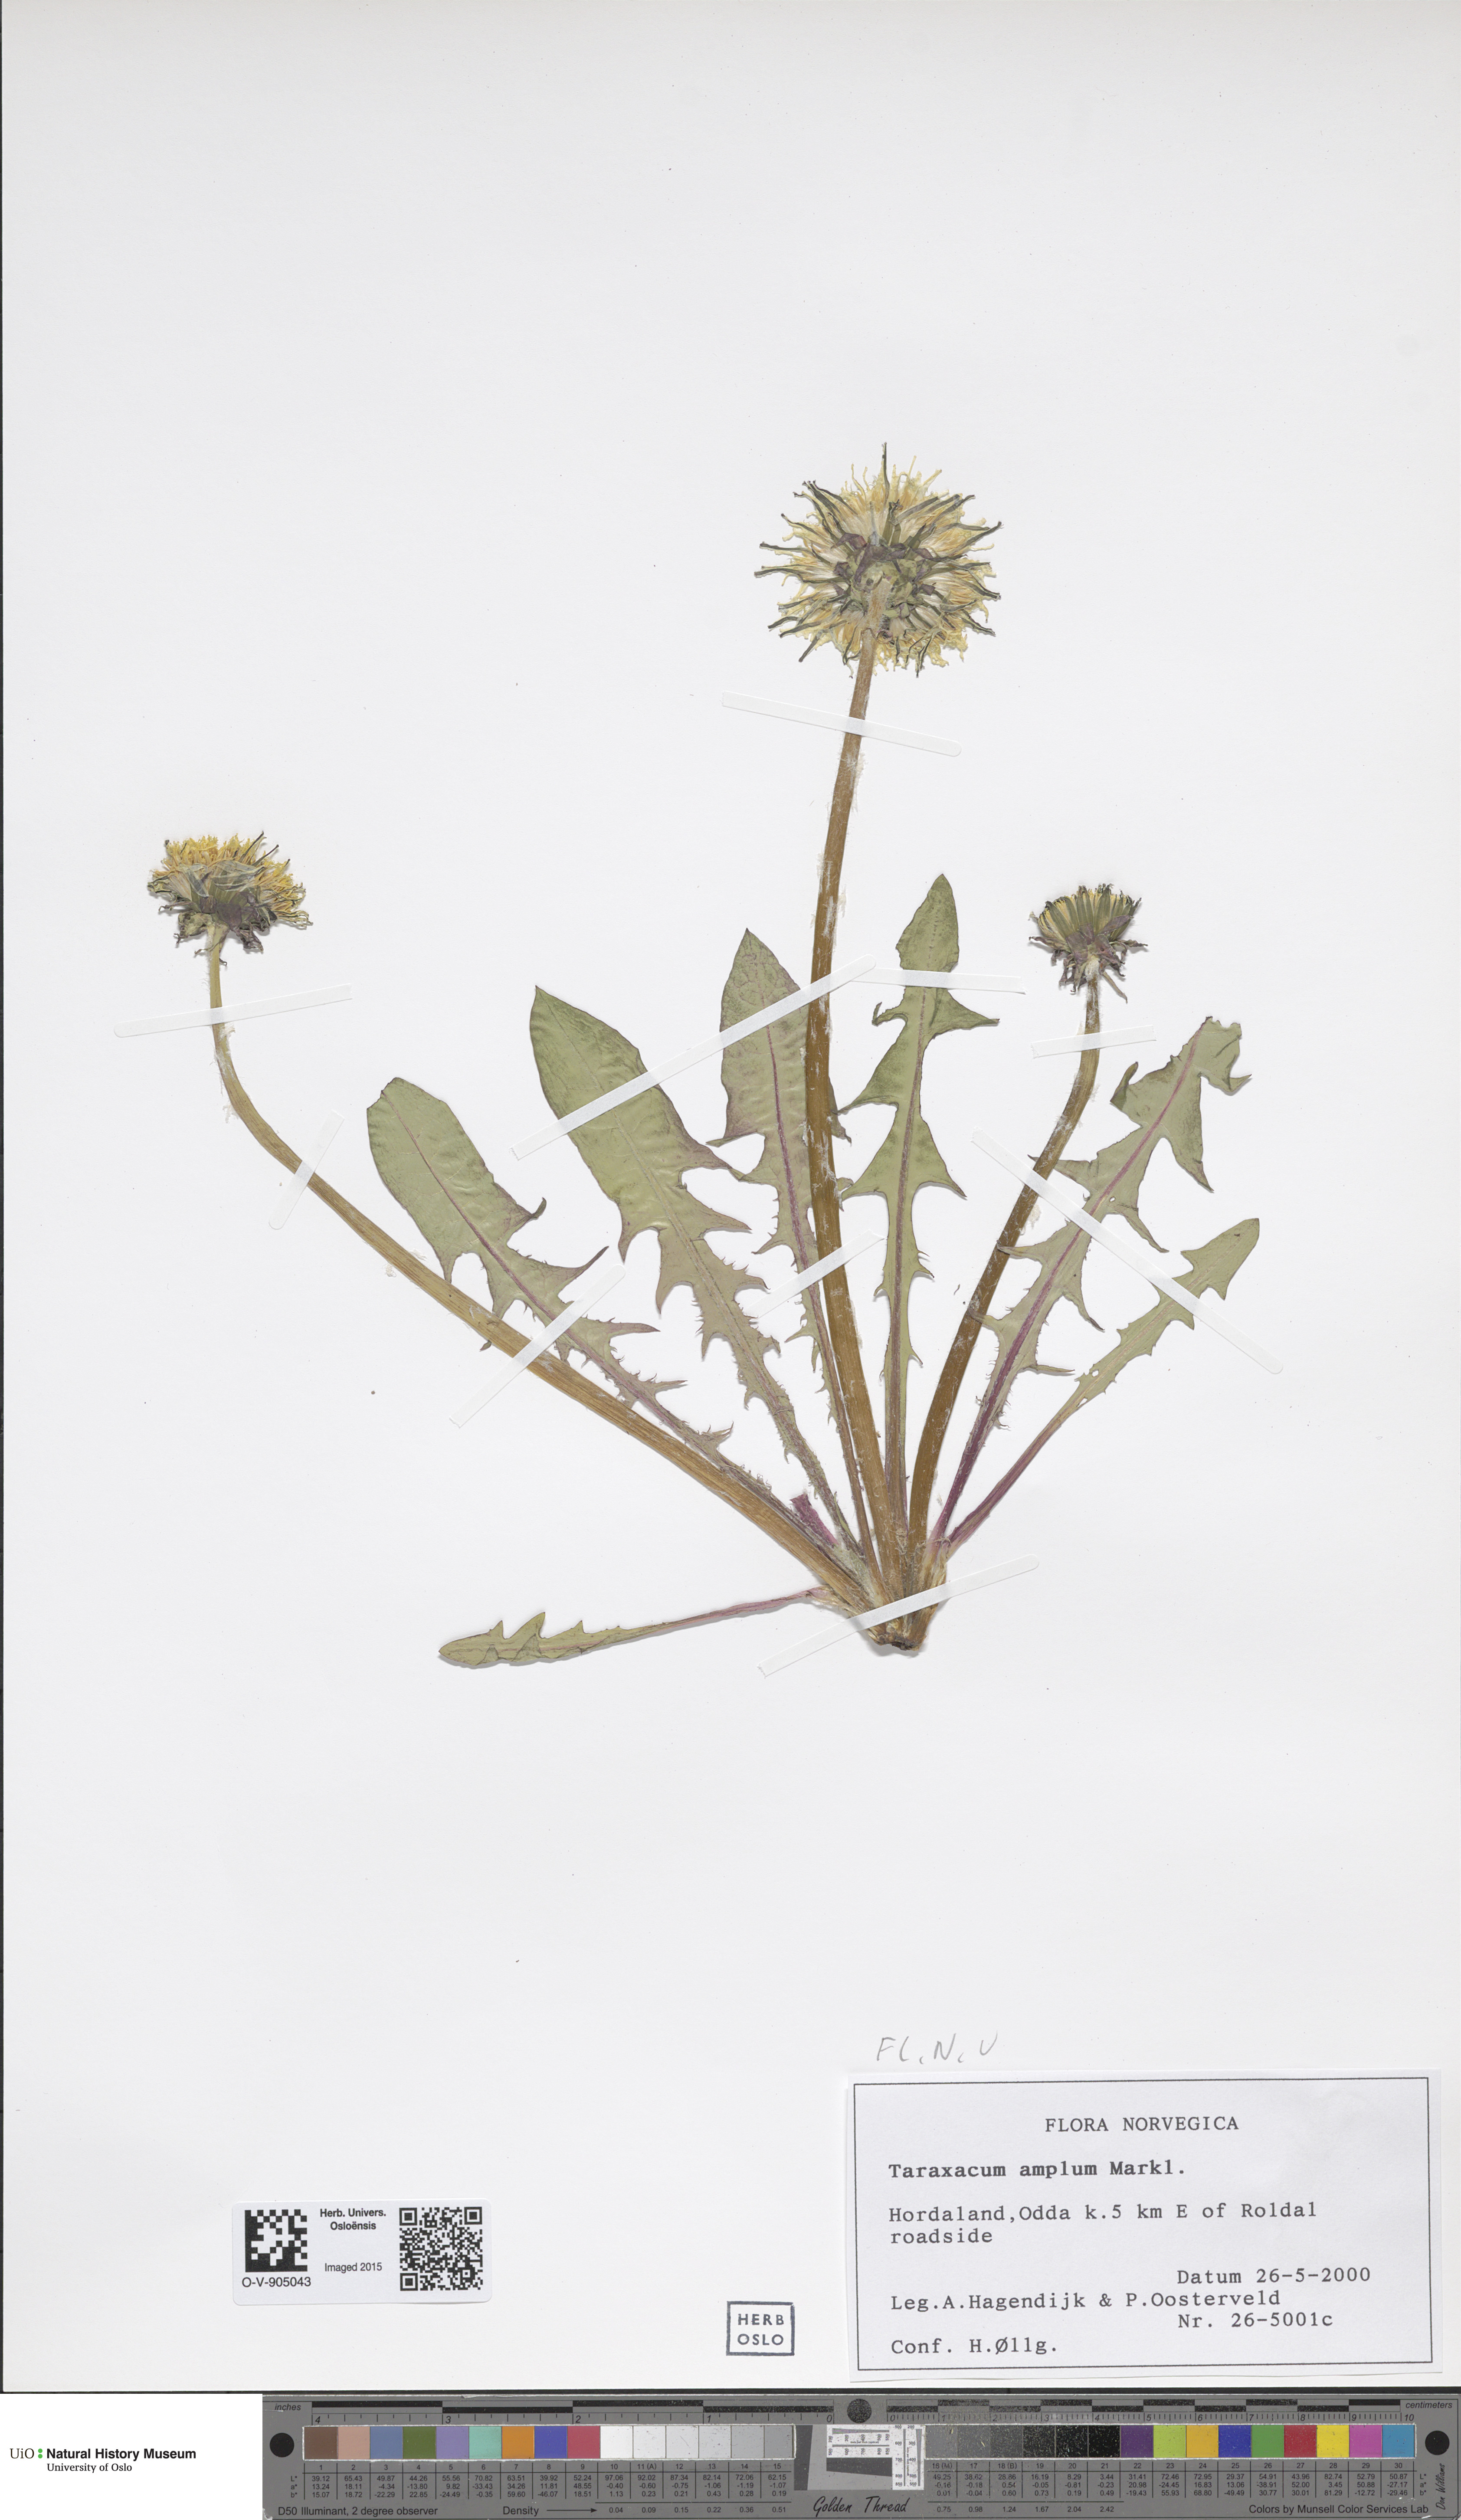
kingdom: Plantae
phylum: Tracheophyta
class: Magnoliopsida
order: Asterales
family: Asteraceae
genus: Taraxacum
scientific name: Taraxacum amplum
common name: Toothed dandelion
